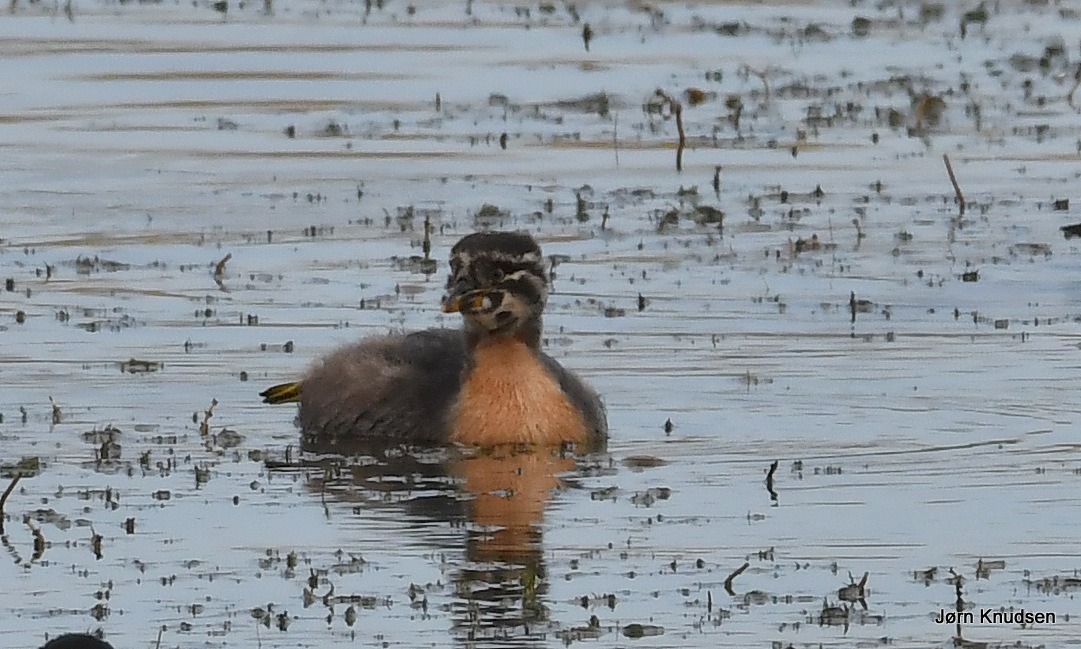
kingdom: Animalia
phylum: Chordata
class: Aves
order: Podicipediformes
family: Podicipedidae
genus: Podiceps
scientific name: Podiceps grisegena
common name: Gråstrubet lappedykker
